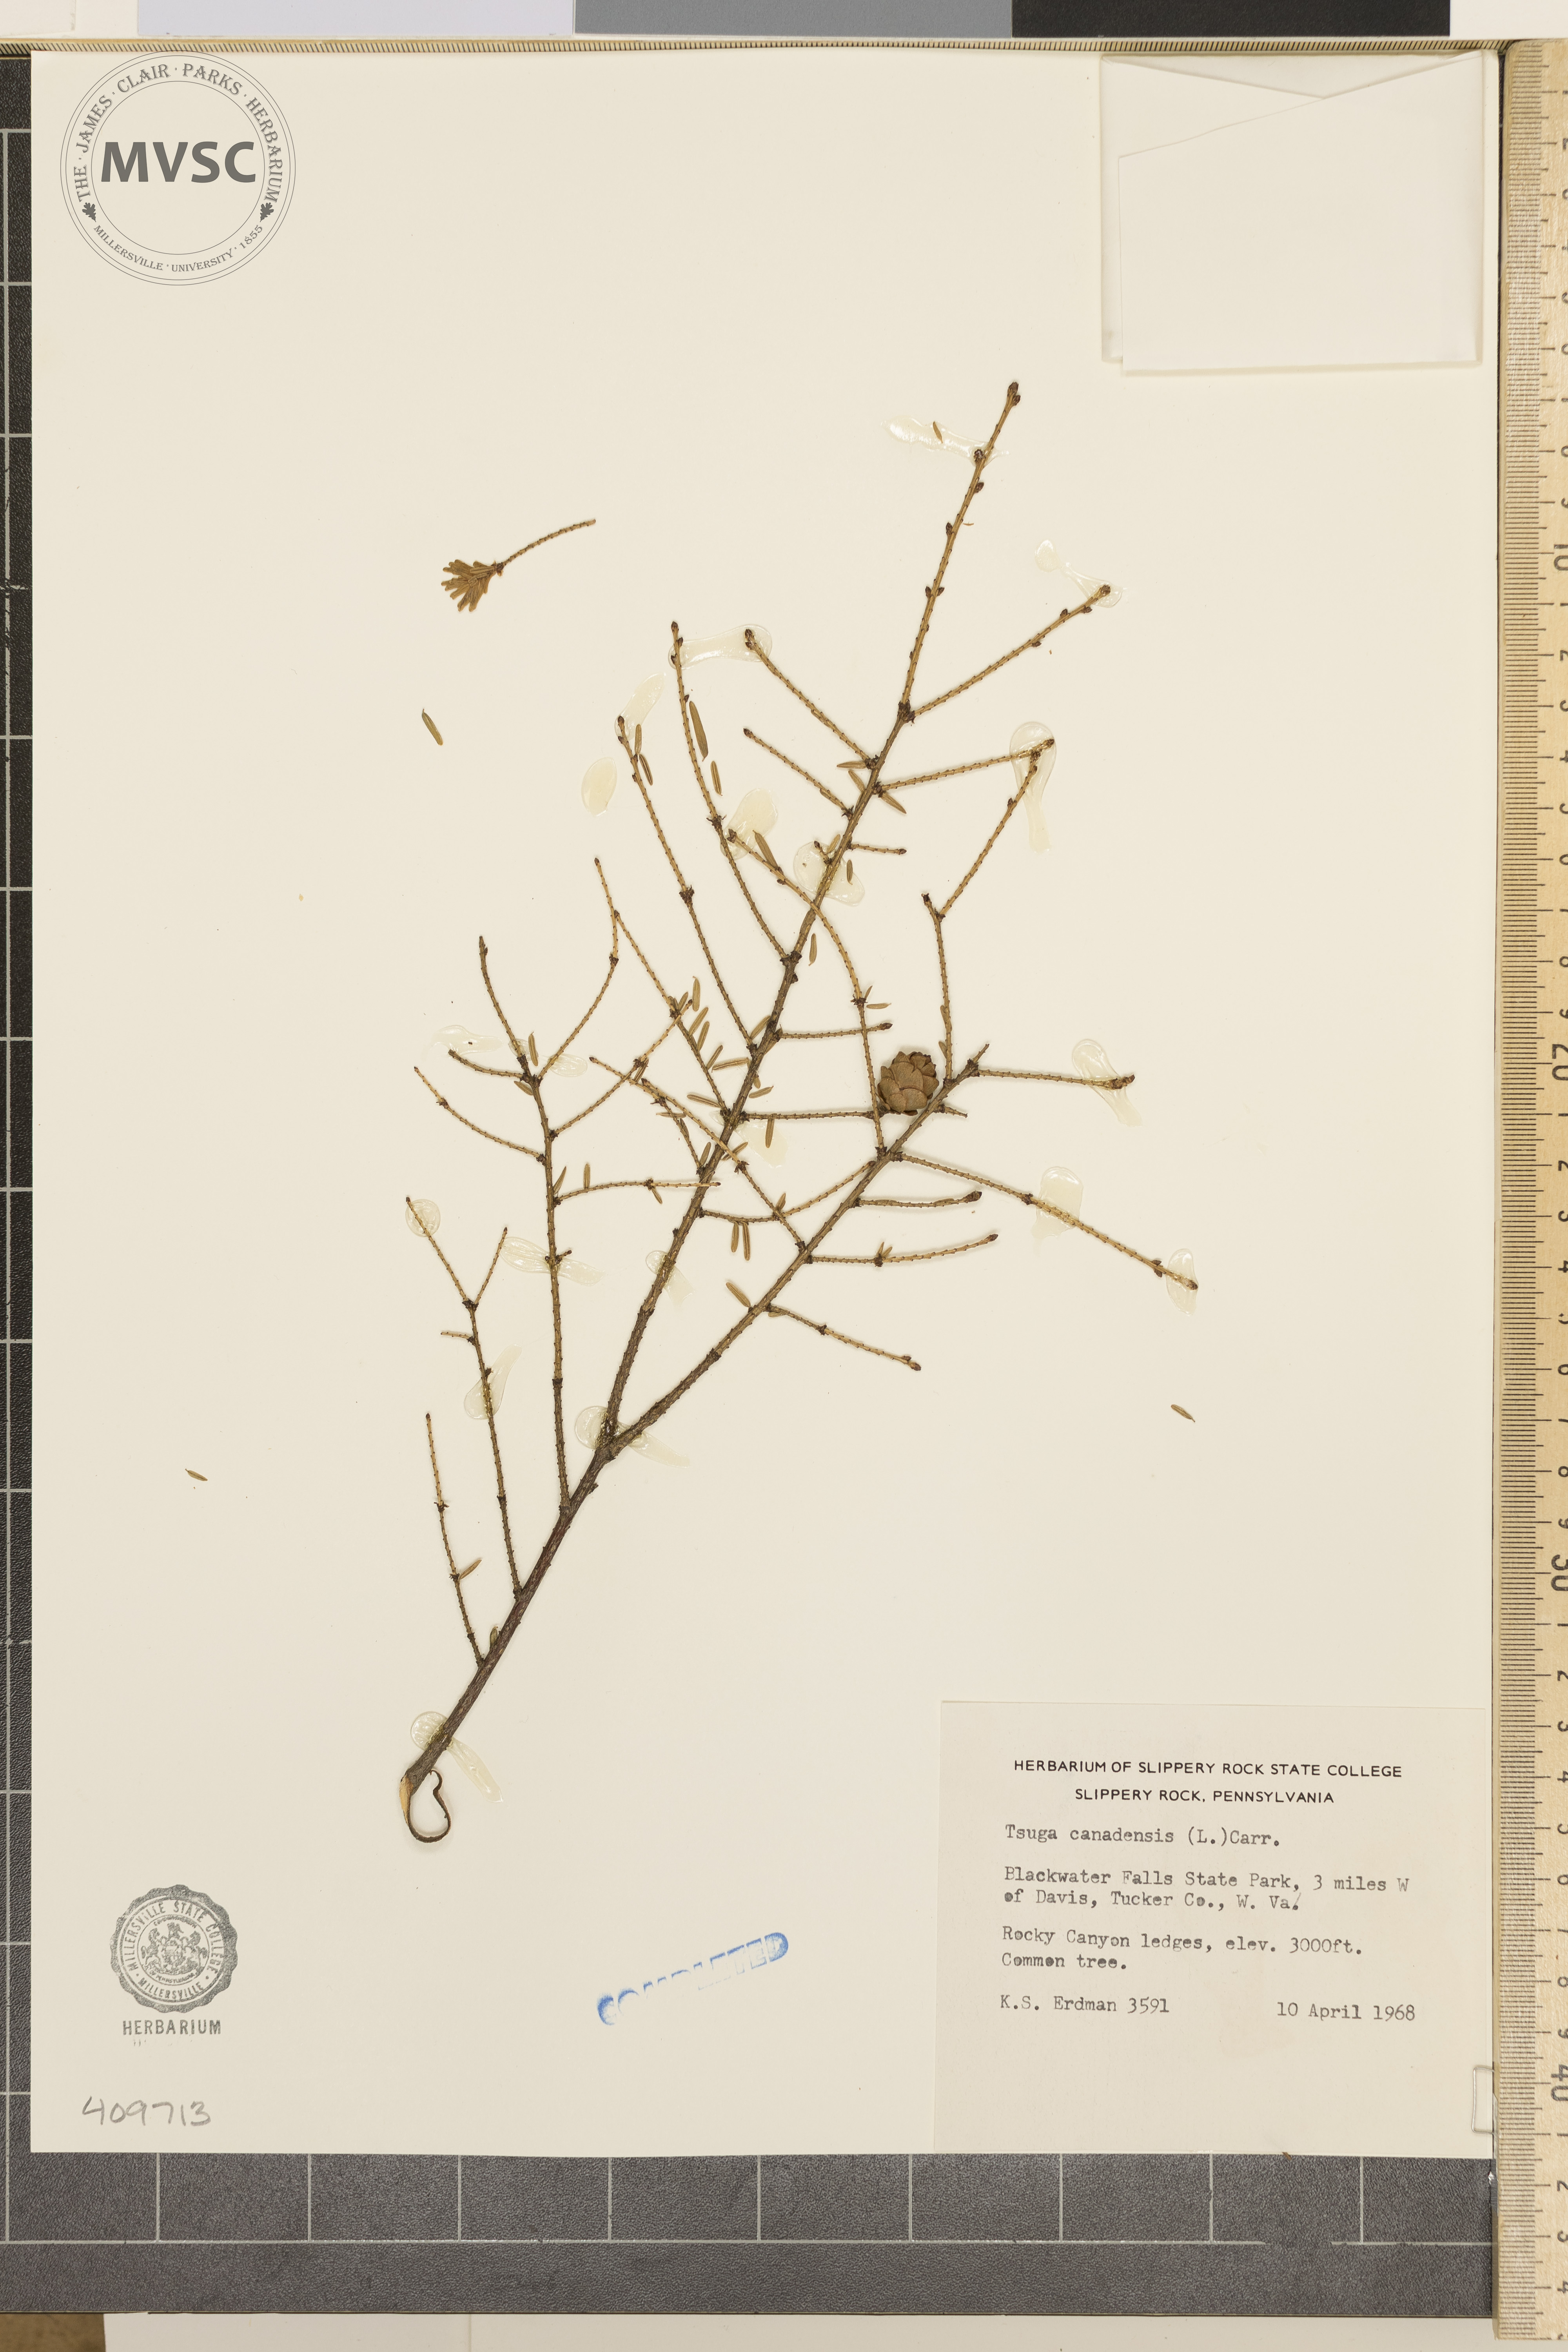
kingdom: Plantae
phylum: Tracheophyta
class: Pinopsida
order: Pinales
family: Pinaceae
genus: Tsuga
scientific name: Tsuga canadensis
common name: Eastern hemlock
